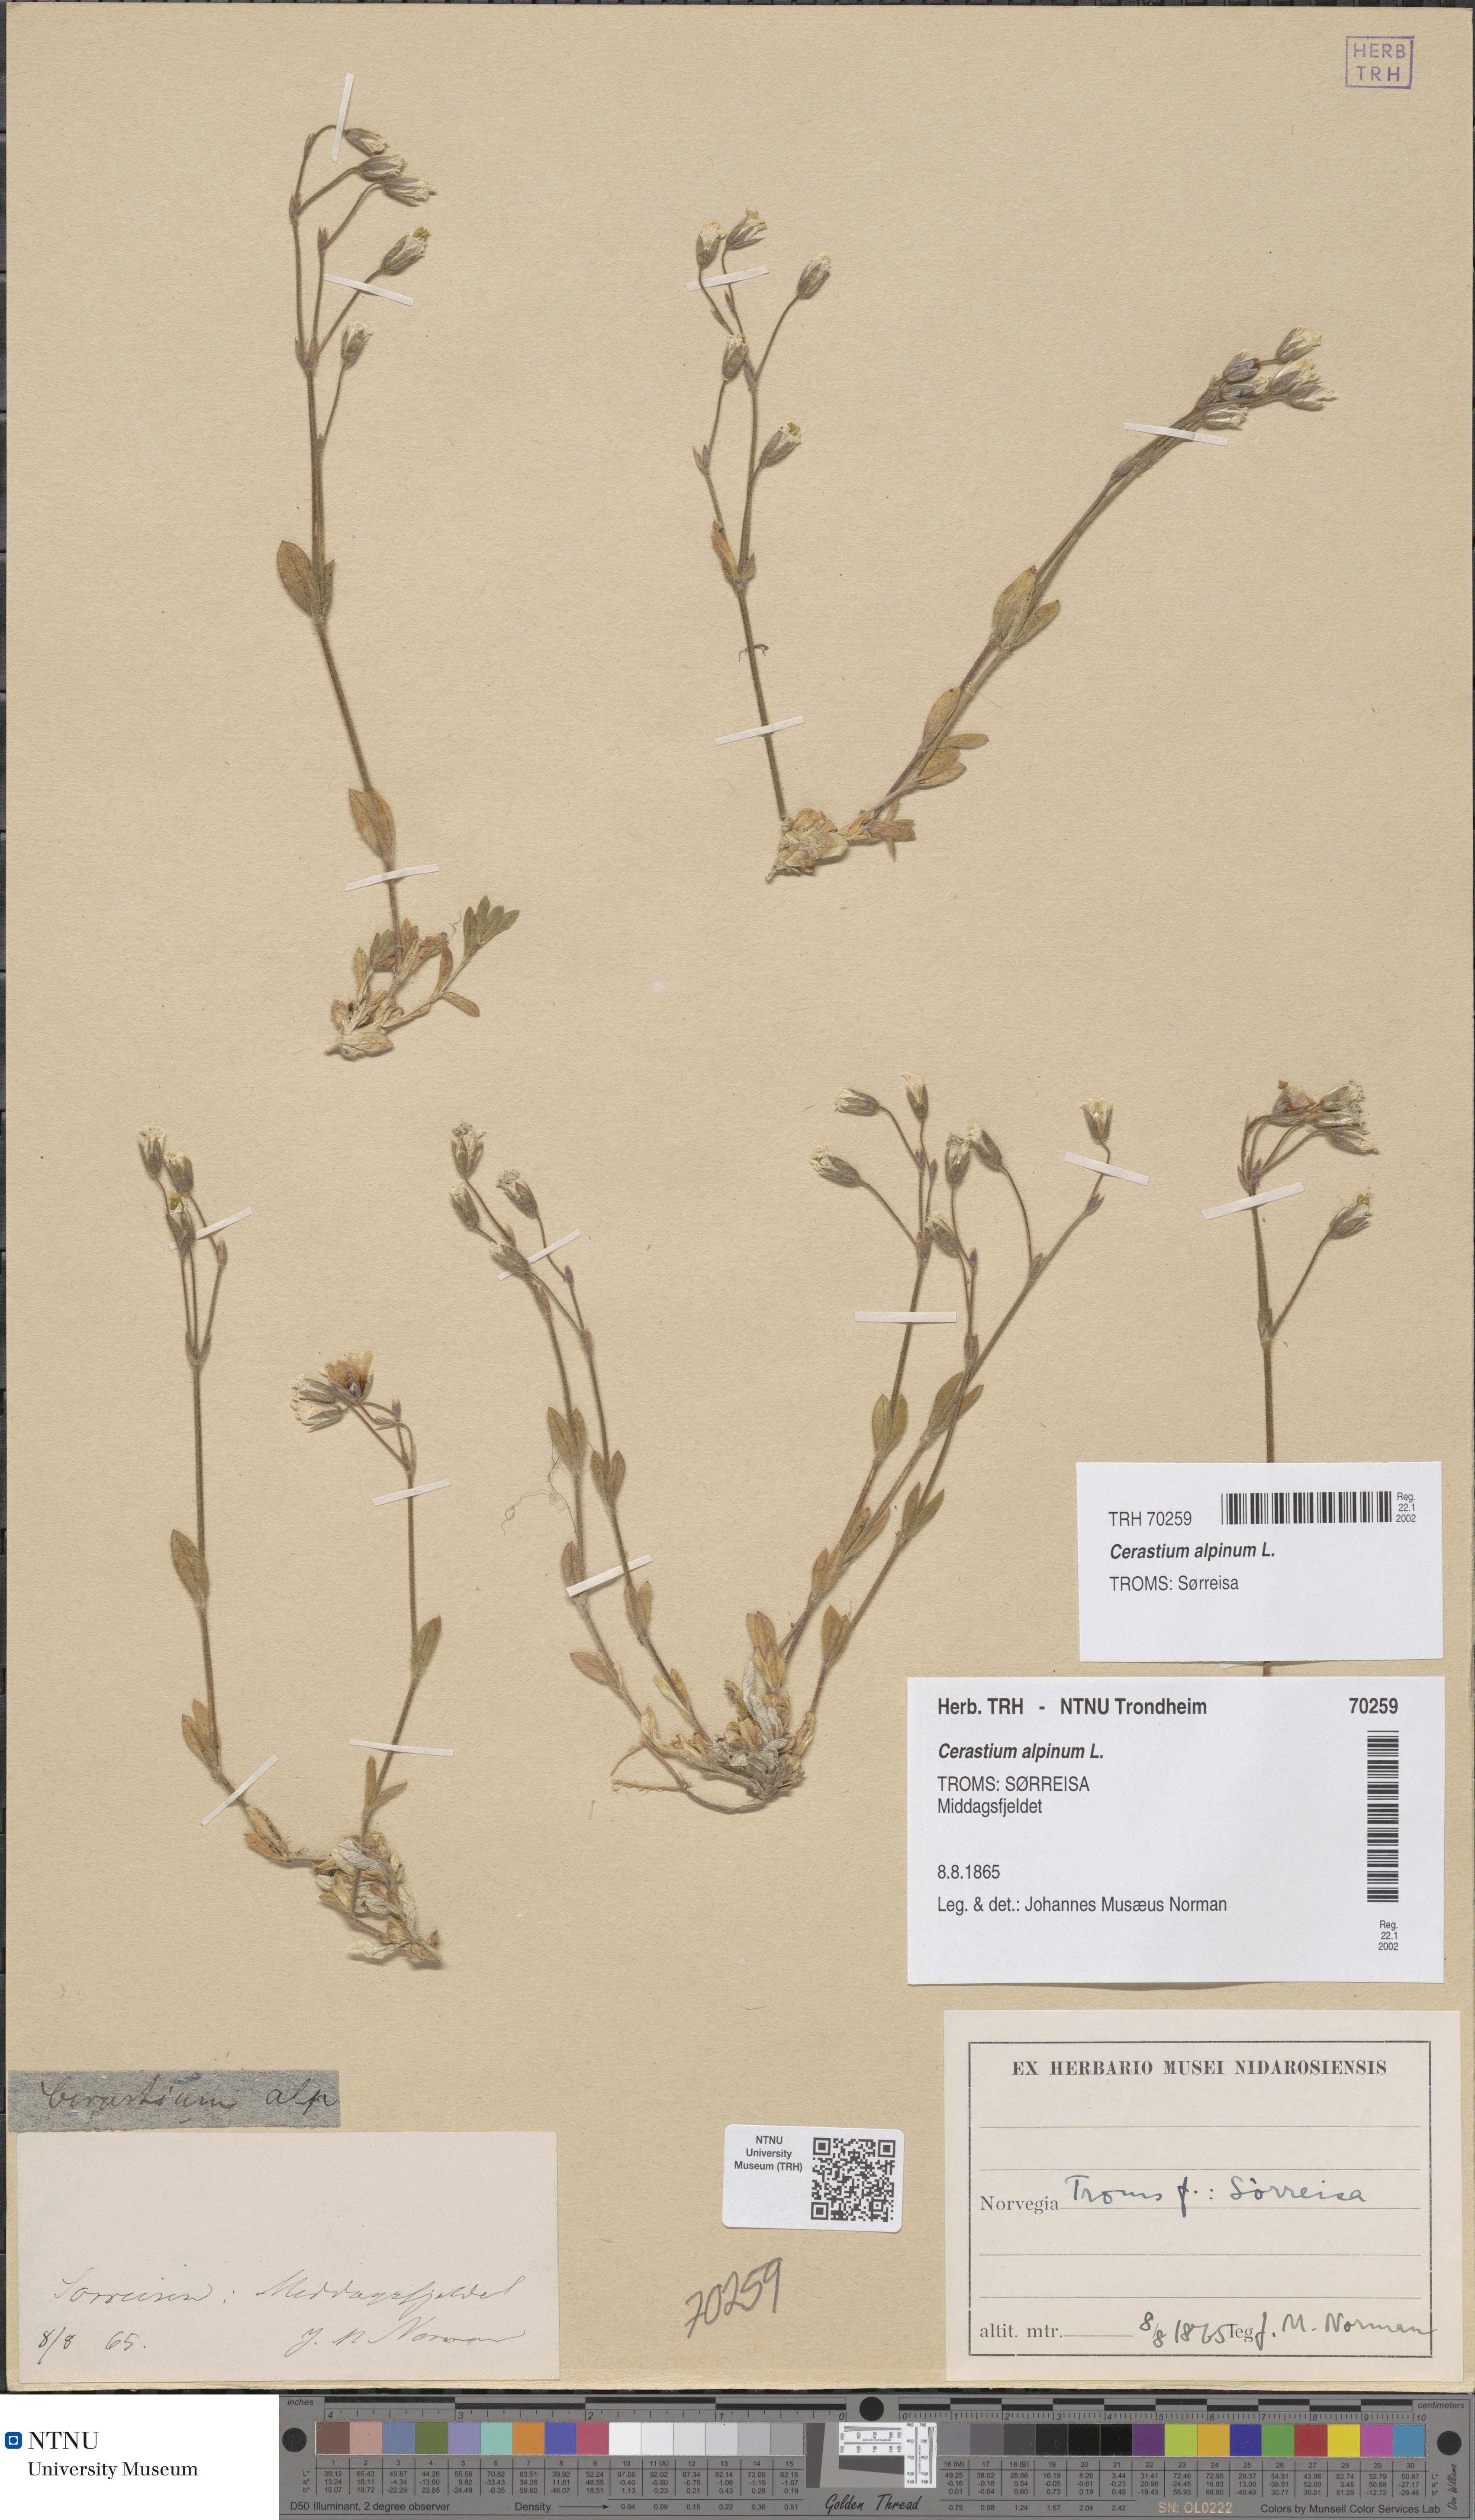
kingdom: Plantae
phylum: Tracheophyta
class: Magnoliopsida
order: Caryophyllales
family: Caryophyllaceae
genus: Cerastium
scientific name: Cerastium alpinum
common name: Alpine mouse-ear
